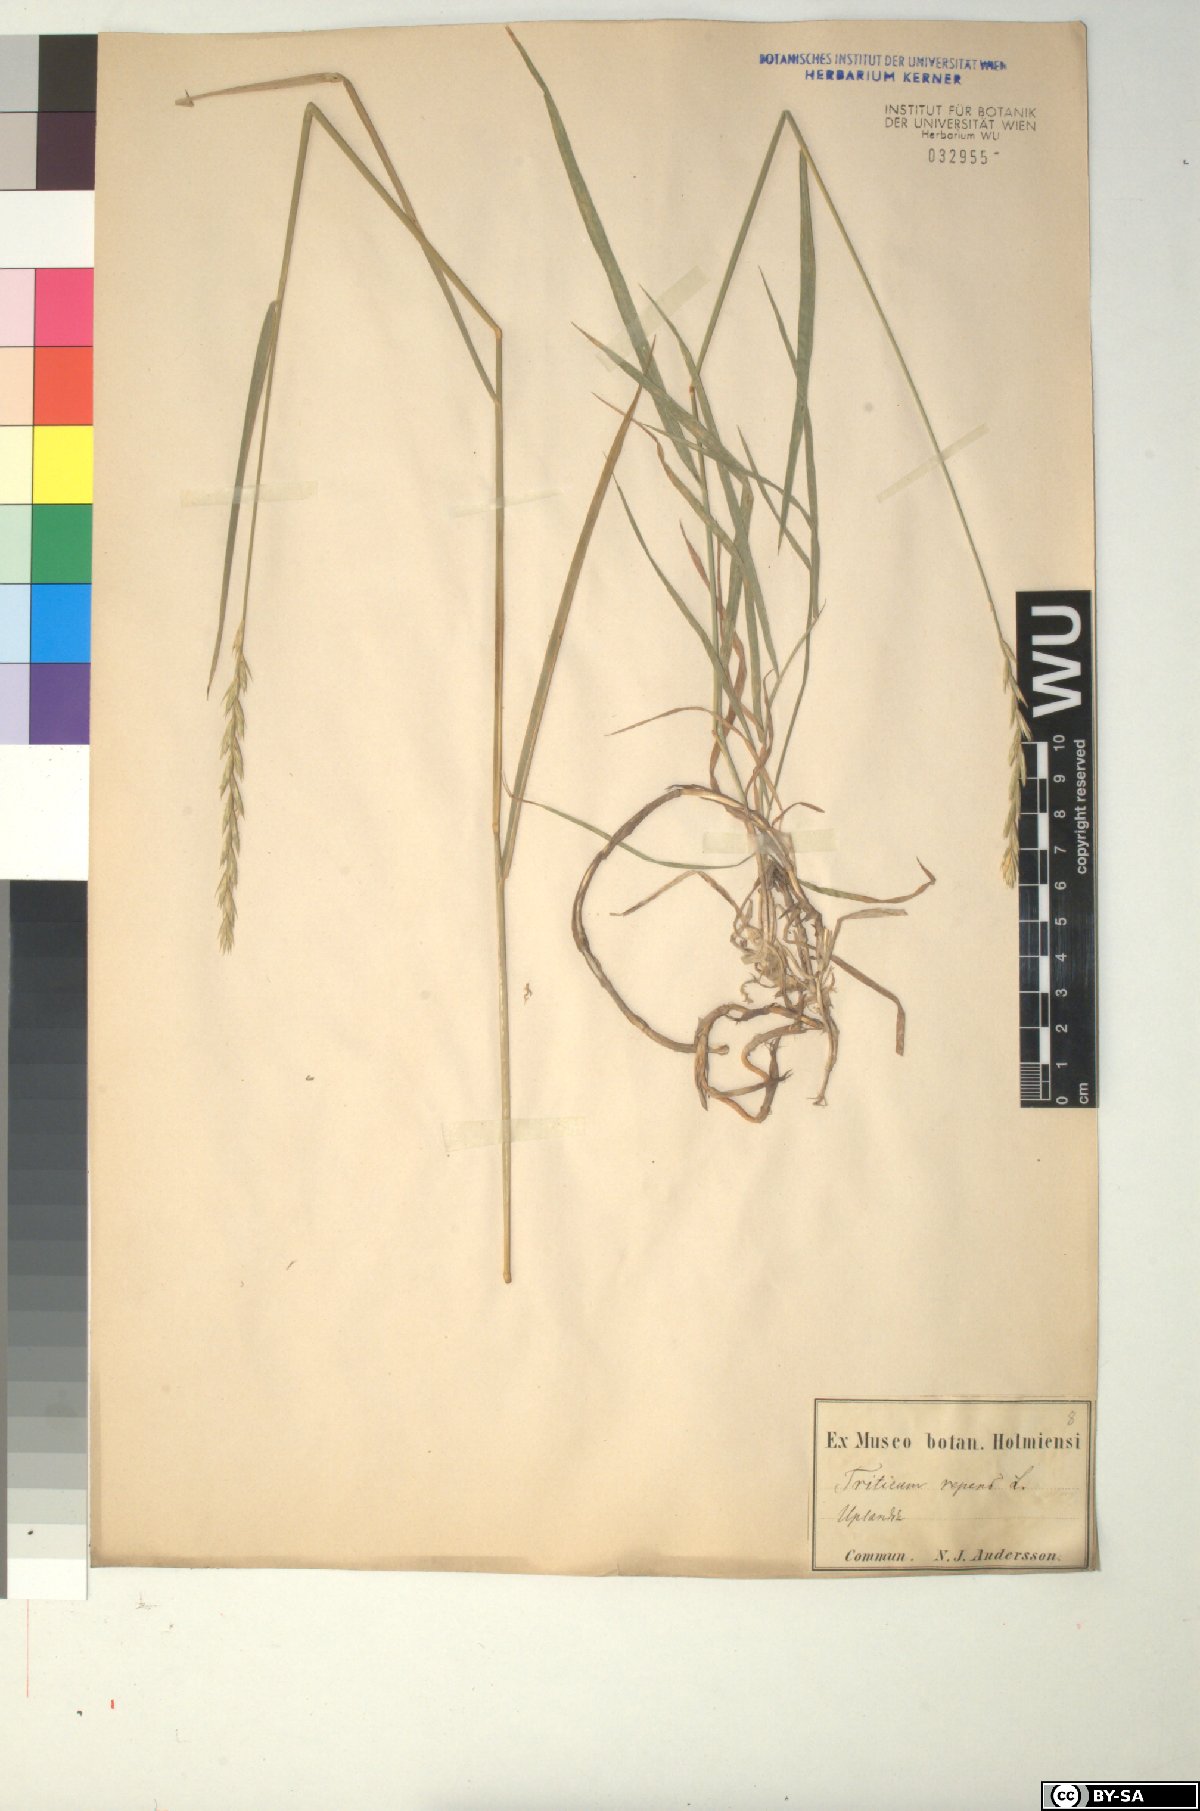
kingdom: Plantae
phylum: Tracheophyta
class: Liliopsida
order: Poales
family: Poaceae
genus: Elymus
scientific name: Elymus repens
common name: Quackgrass
